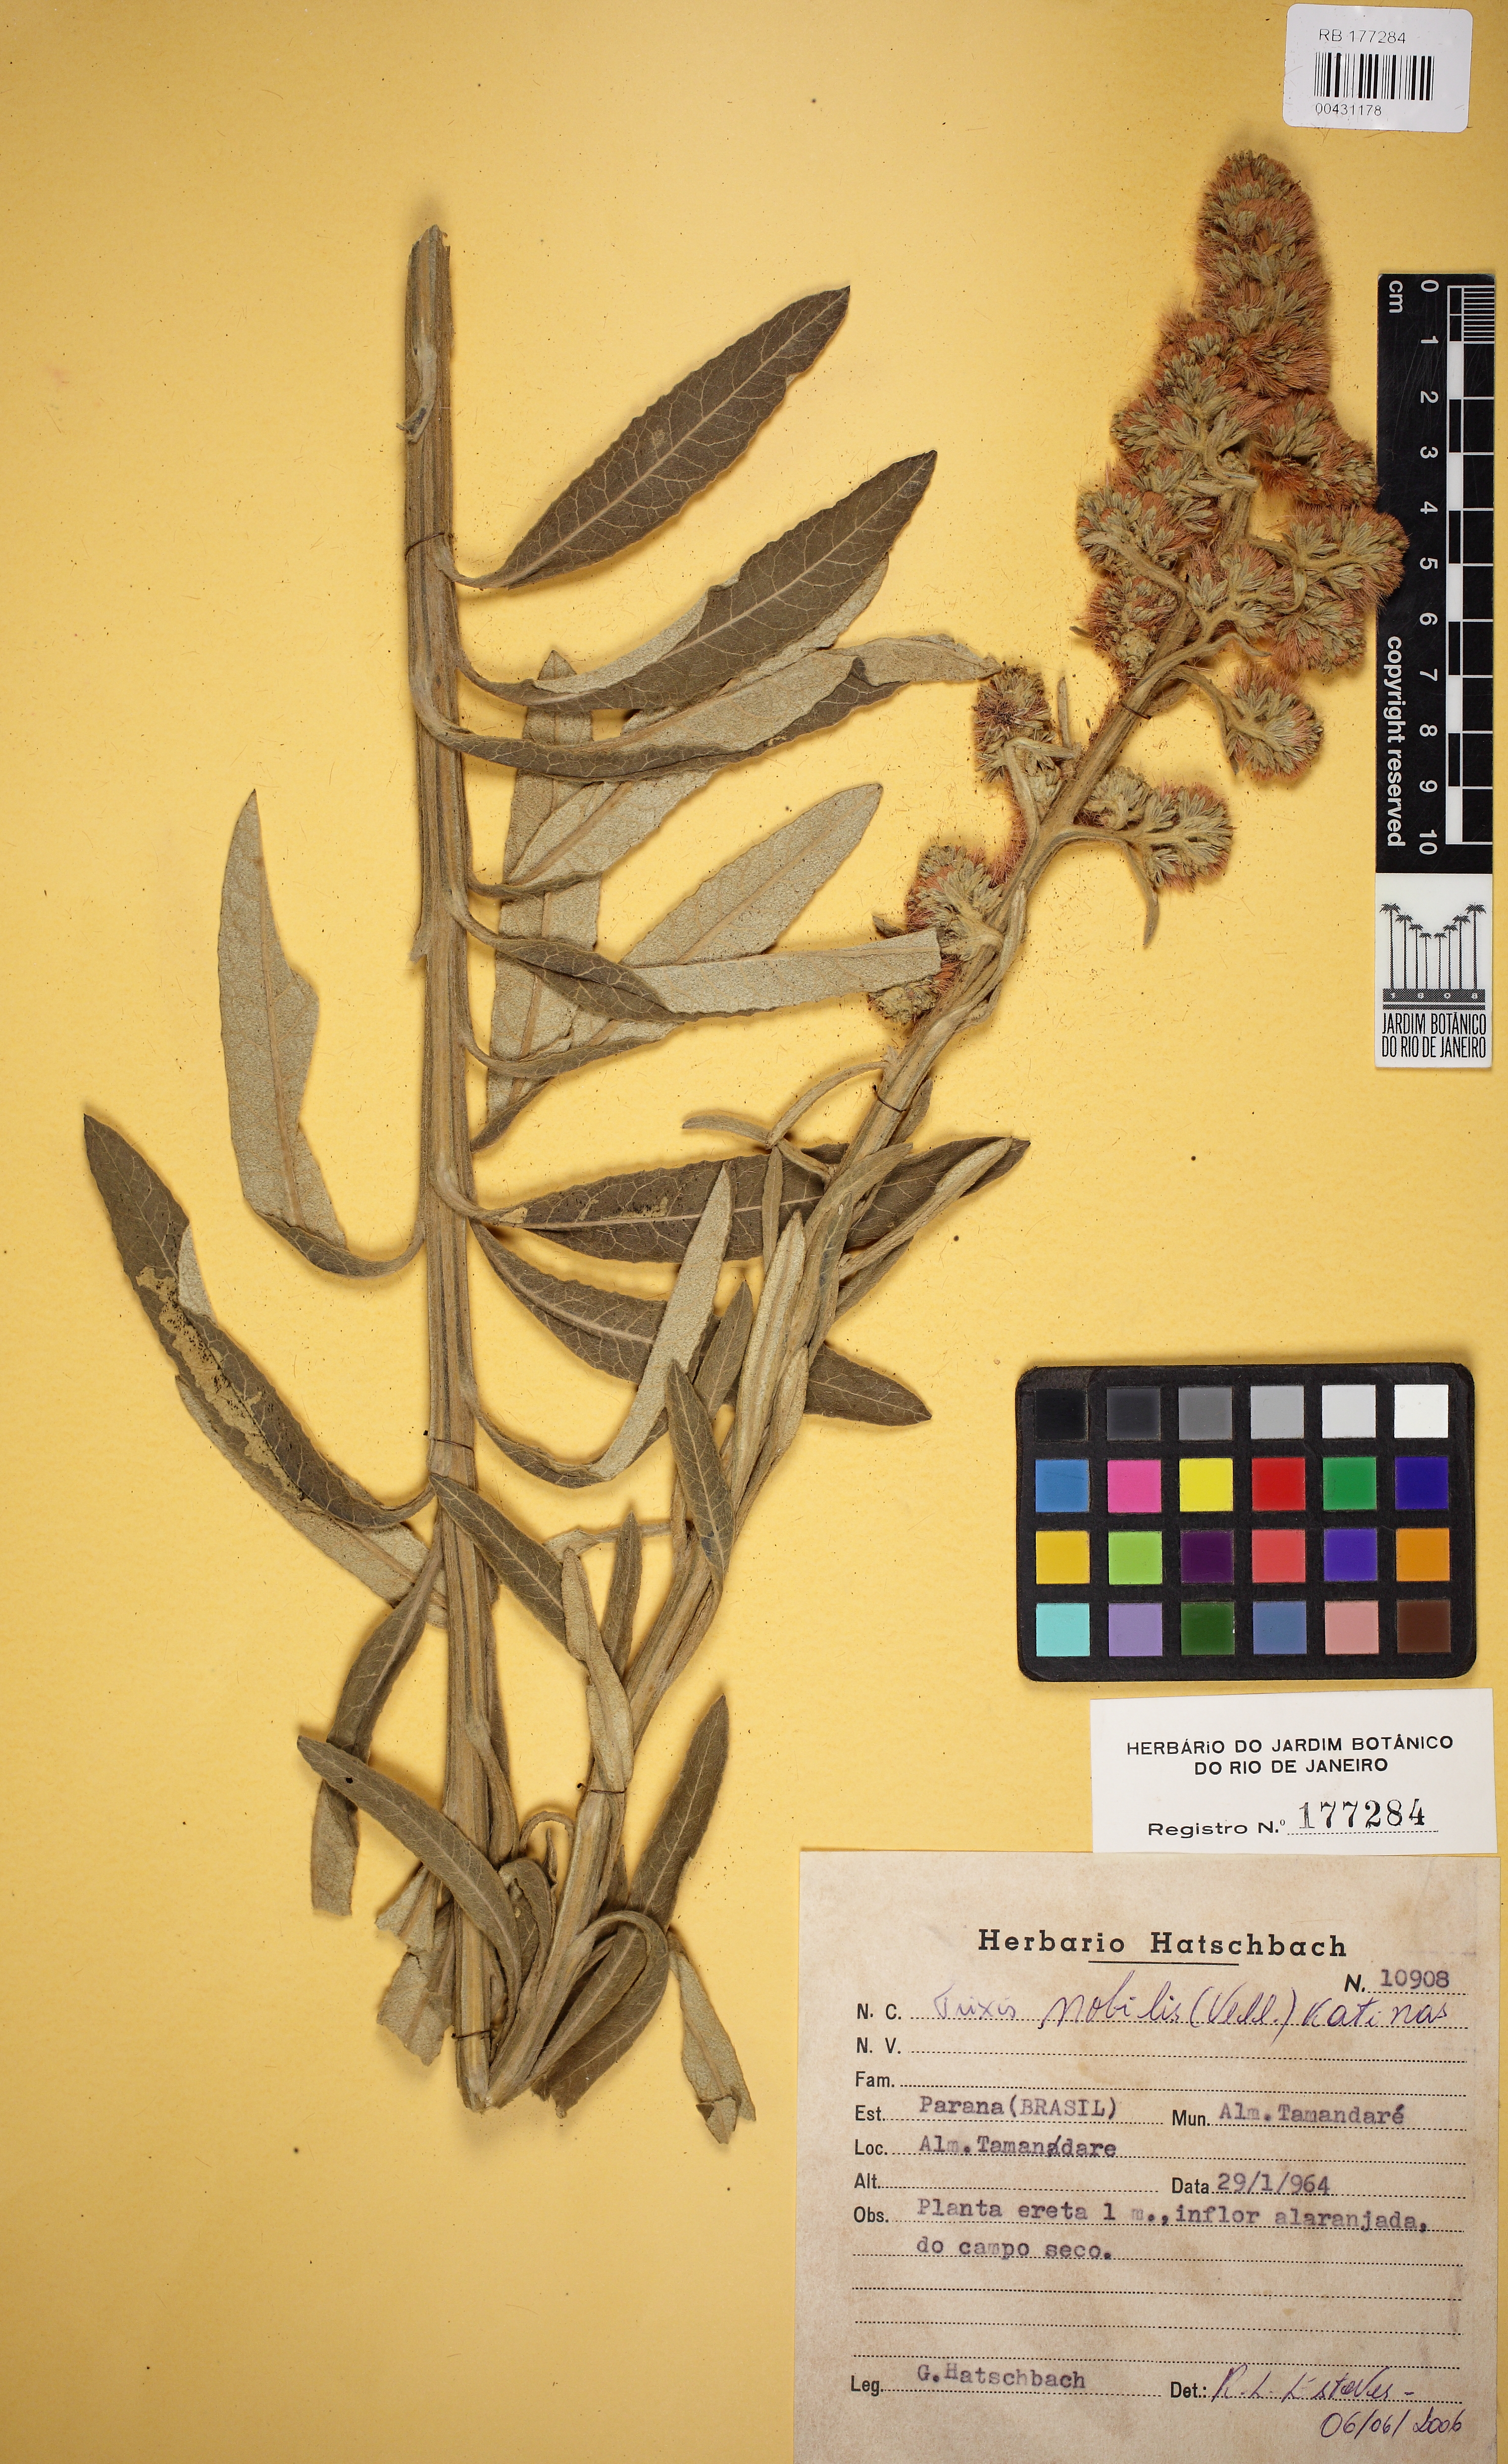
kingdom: Plantae
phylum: Tracheophyta
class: Magnoliopsida
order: Asterales
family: Asteraceae
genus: Trixis
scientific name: Trixis nobilis
